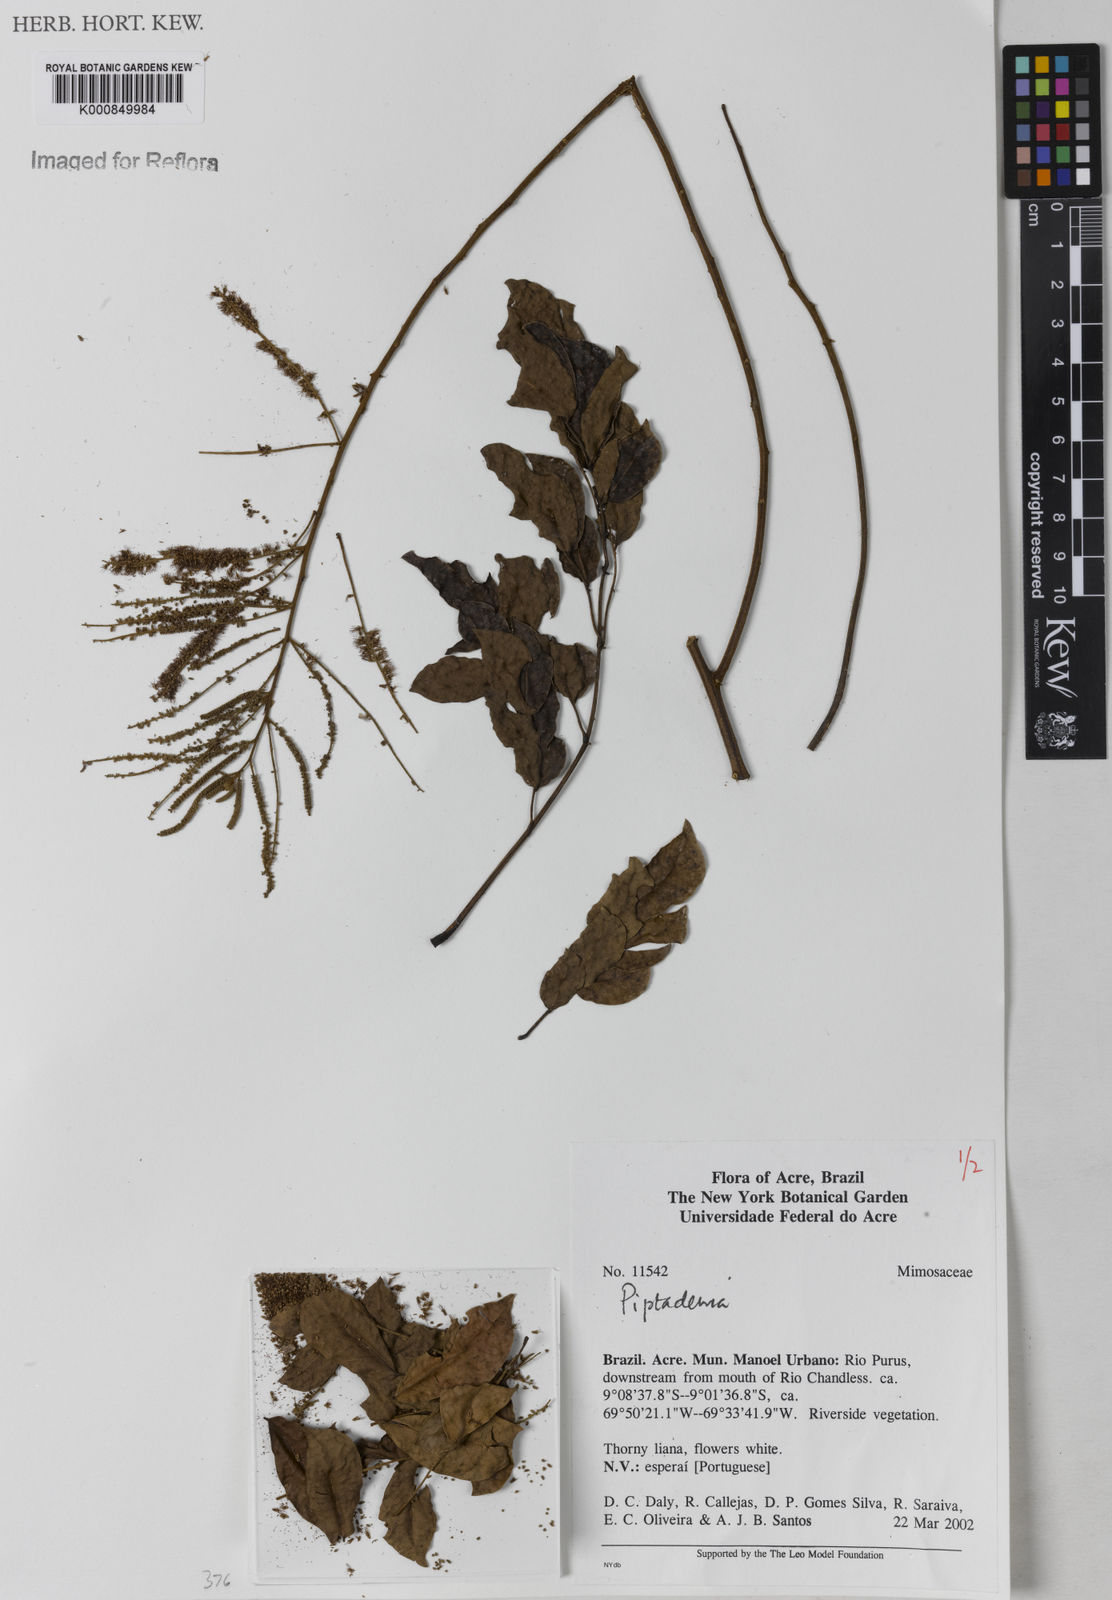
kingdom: Plantae
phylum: Tracheophyta
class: Magnoliopsida
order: Fabales
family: Fabaceae
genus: Piptadenia
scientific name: Piptadenia
